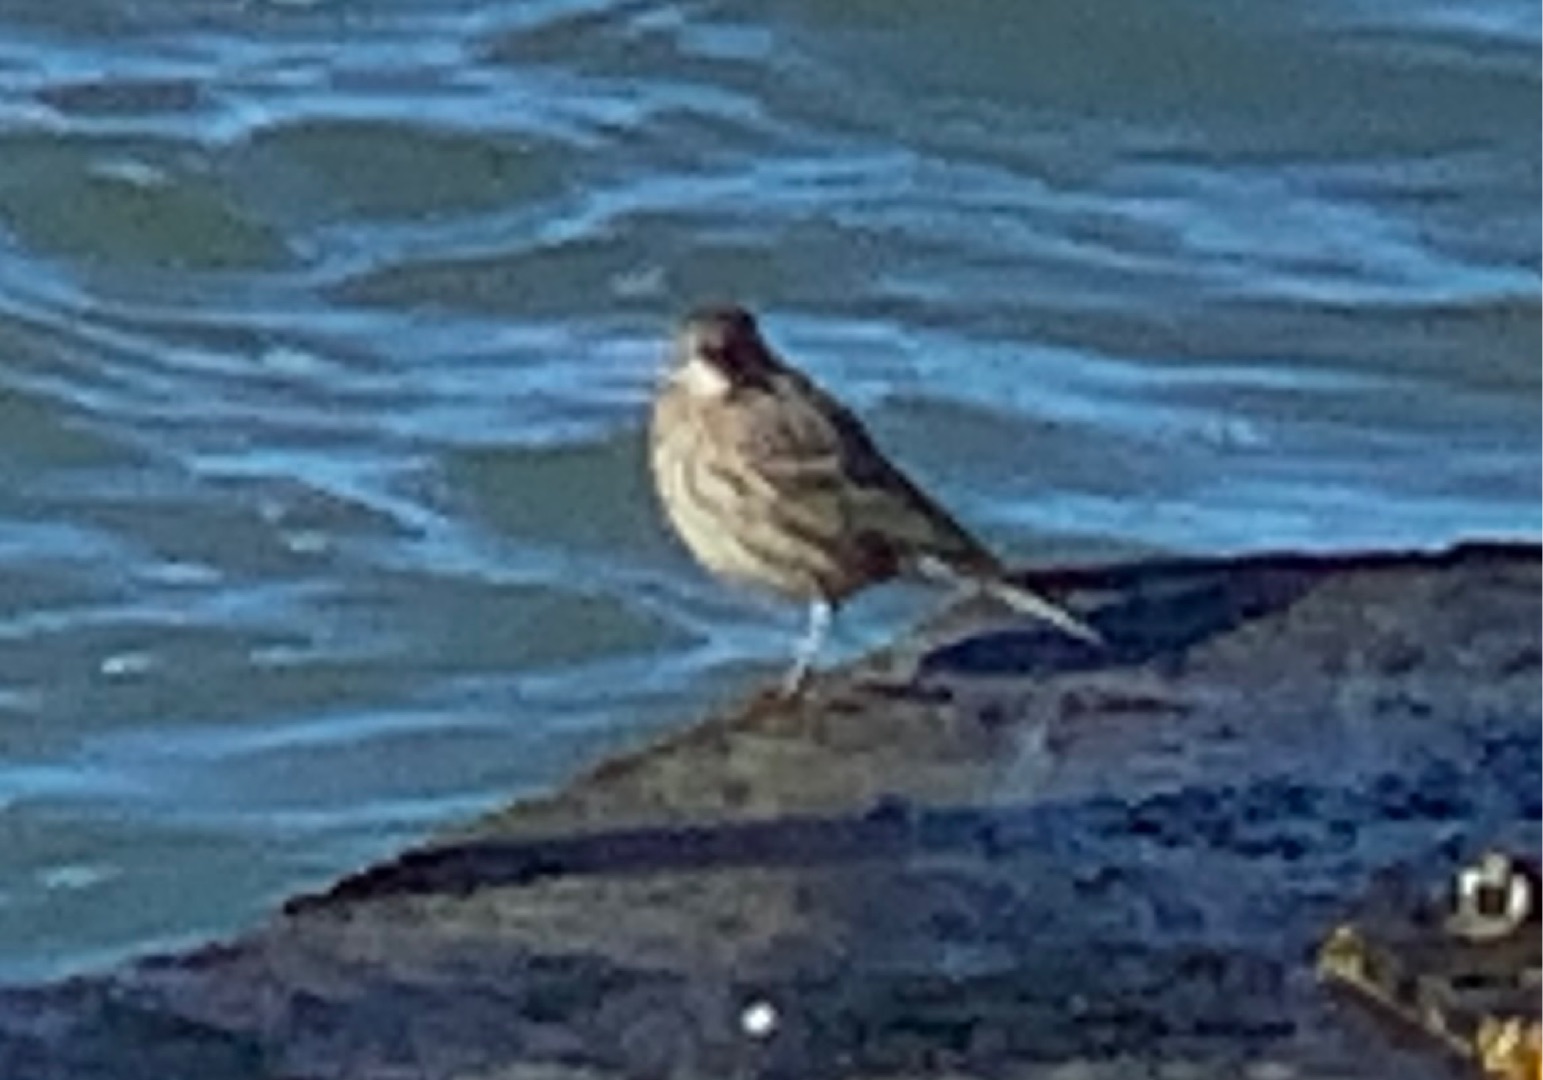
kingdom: Animalia
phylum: Chordata
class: Aves
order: Passeriformes
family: Motacillidae
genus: Anthus
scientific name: Anthus petrosus
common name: Skærpiber
